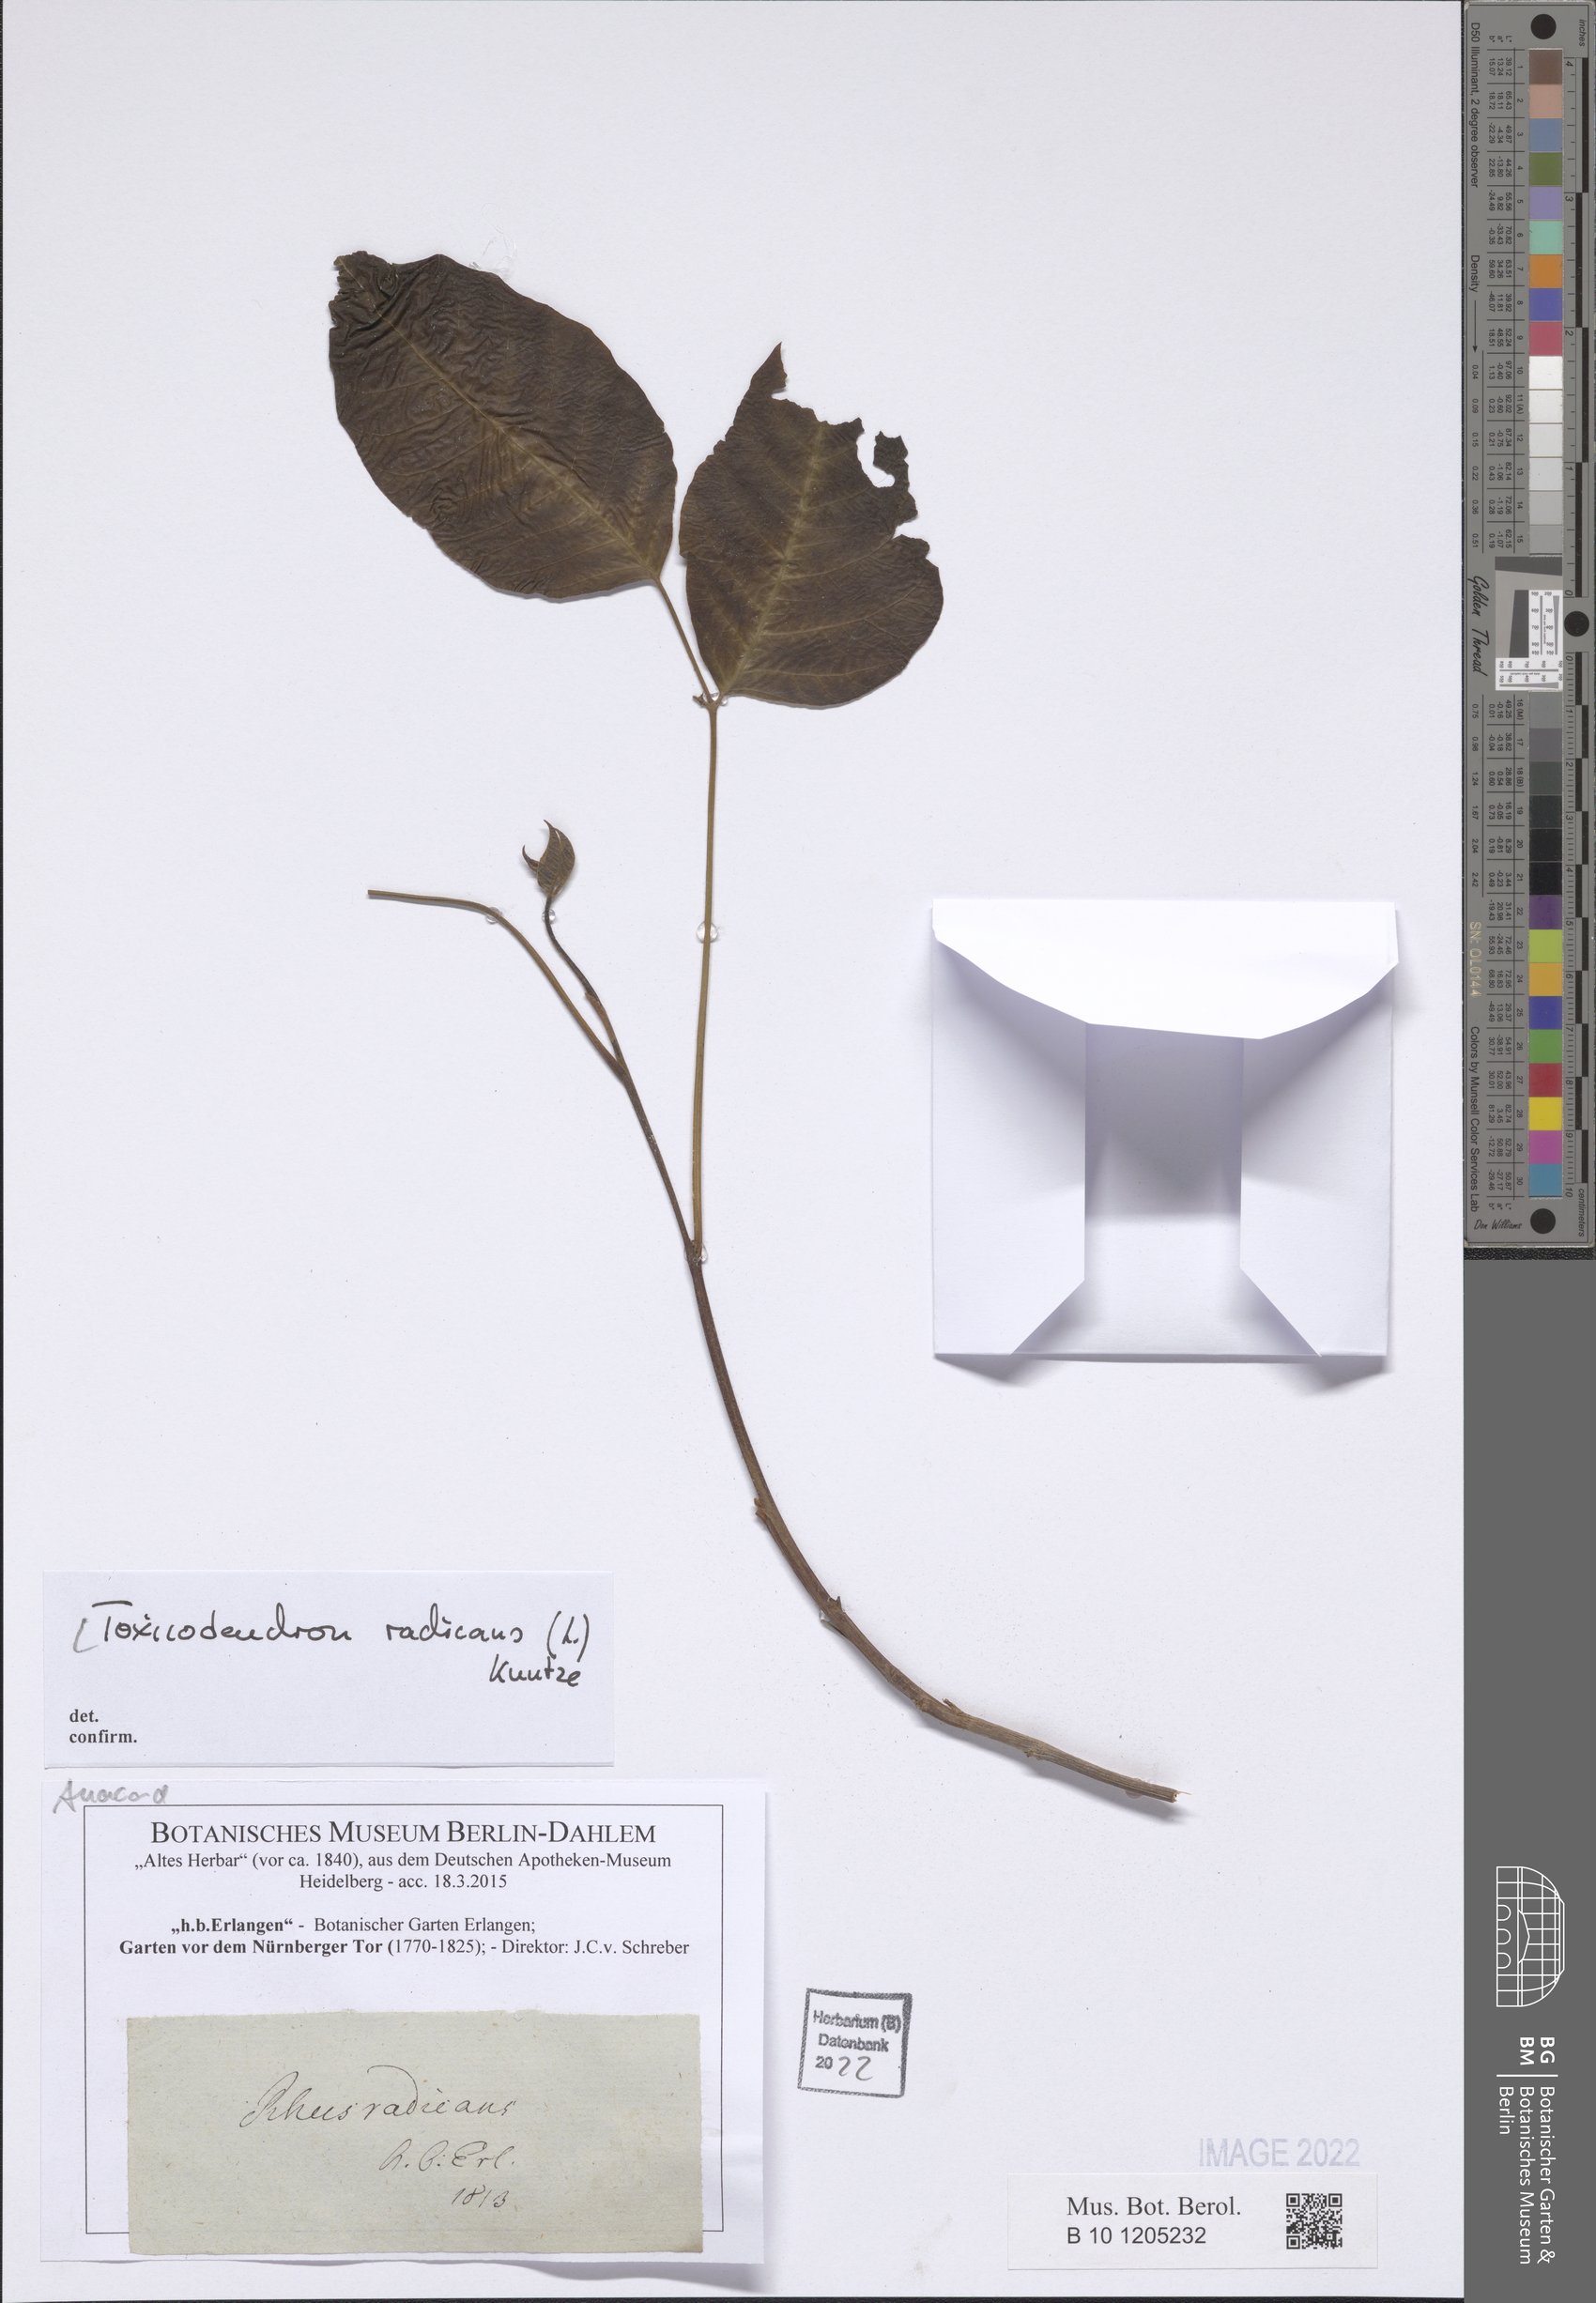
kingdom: Plantae
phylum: Tracheophyta
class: Magnoliopsida
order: Sapindales
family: Anacardiaceae
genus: Toxicodendron
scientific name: Toxicodendron radicans
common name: Poison ivy
